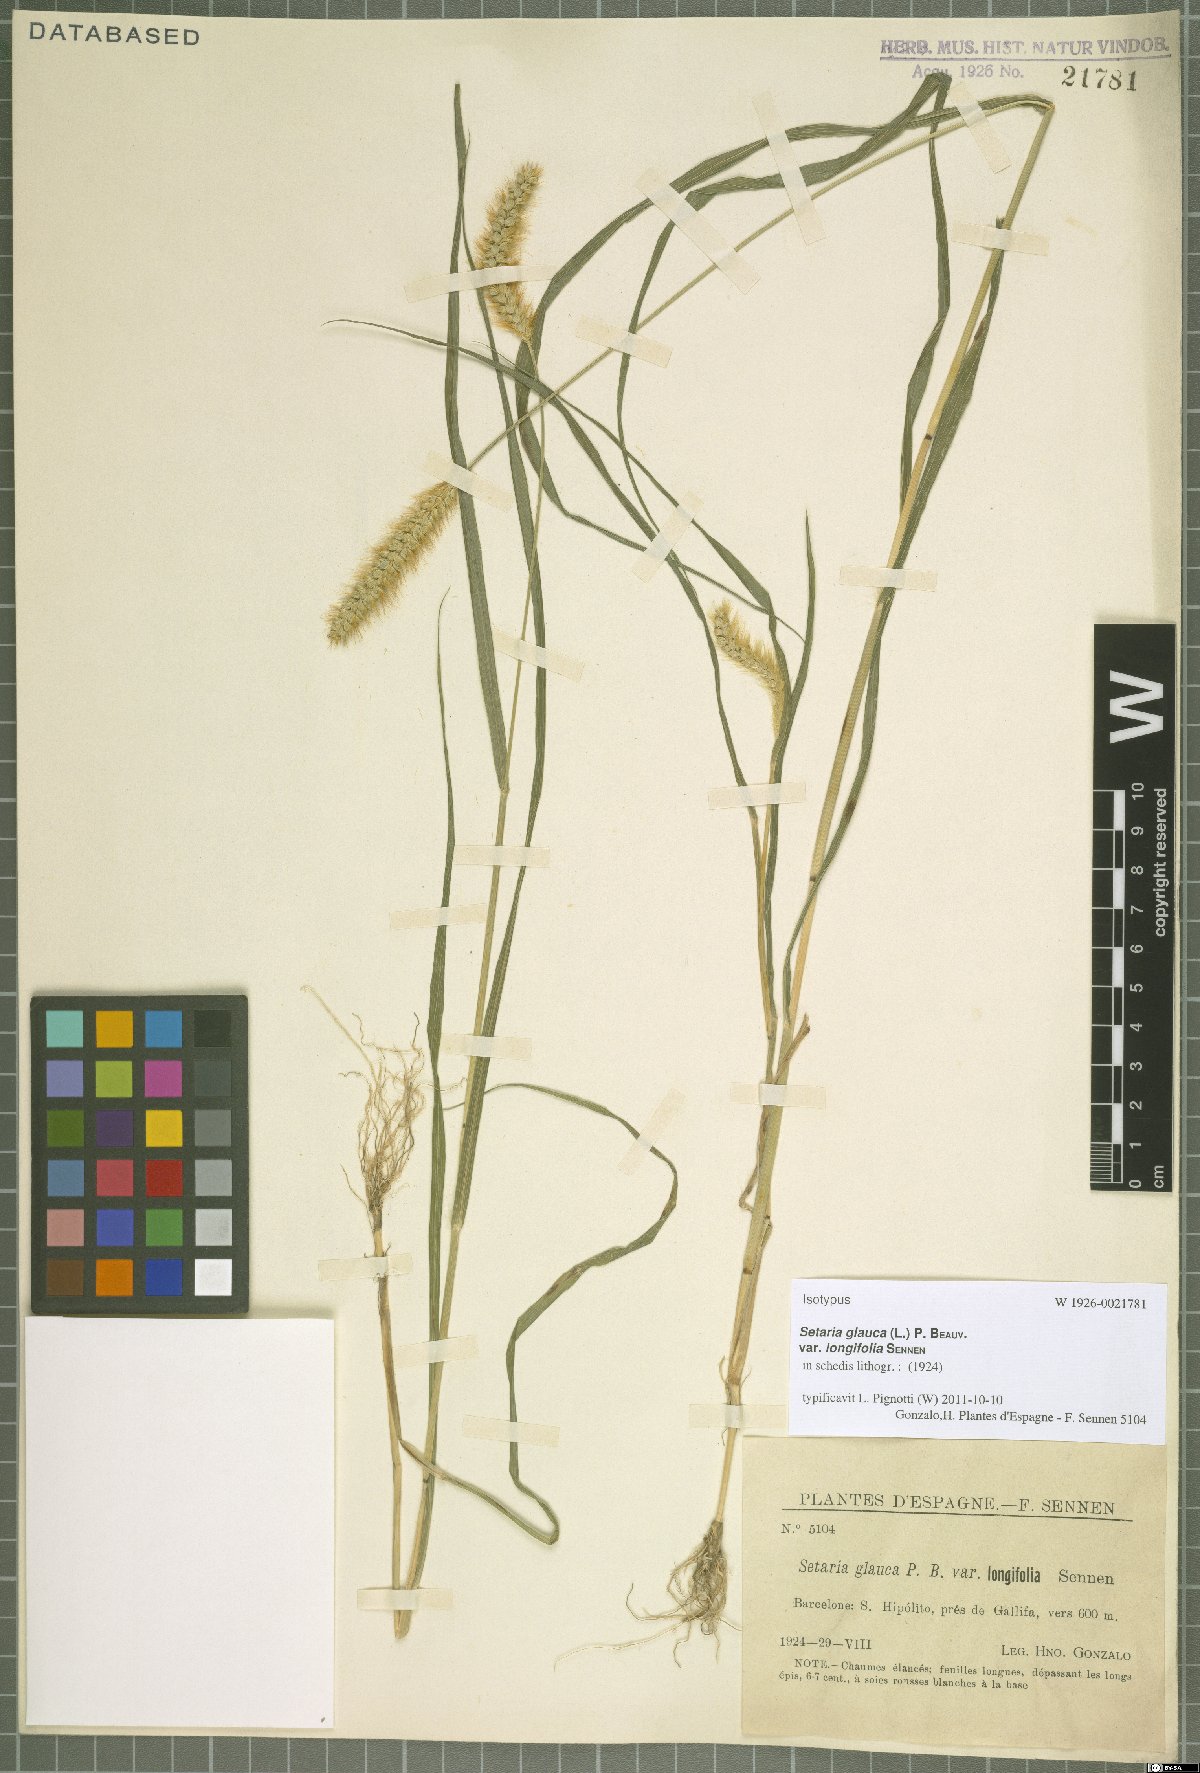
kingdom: Plantae
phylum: Tracheophyta
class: Liliopsida
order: Poales
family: Poaceae
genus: Setaria
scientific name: Setaria glauca
